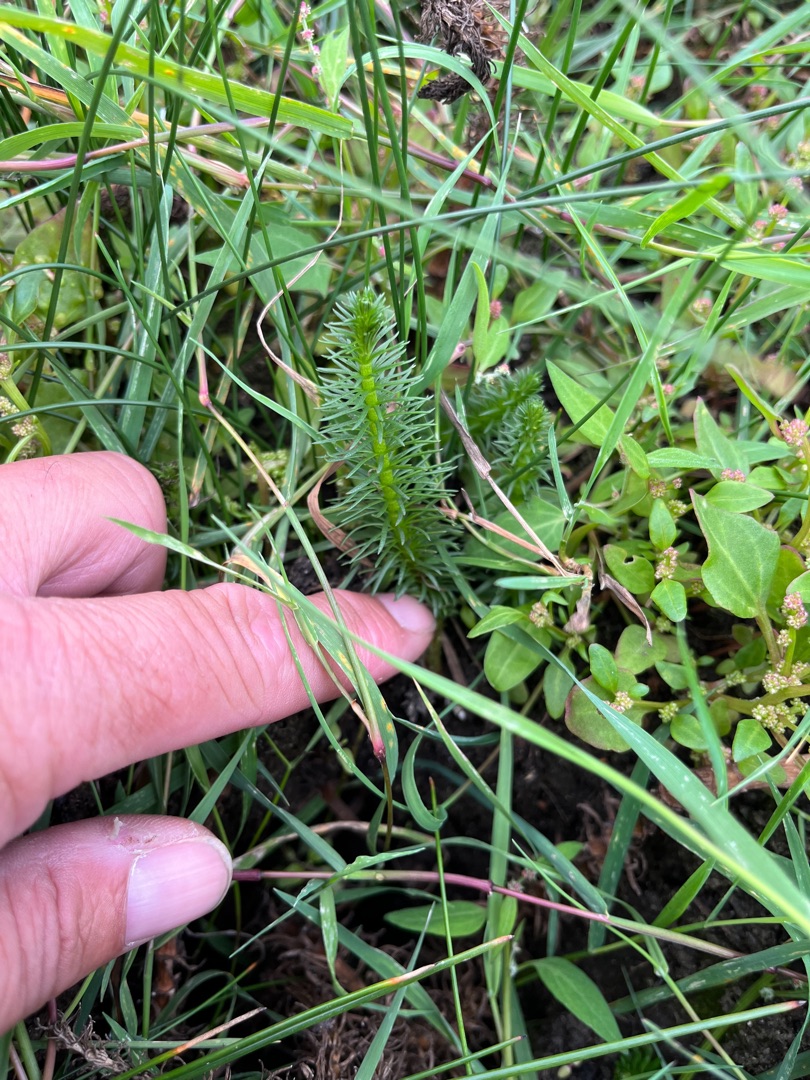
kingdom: Plantae
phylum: Tracheophyta
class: Magnoliopsida
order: Lamiales
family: Plantaginaceae
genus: Hippuris
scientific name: Hippuris vulgaris
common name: Vandspir
